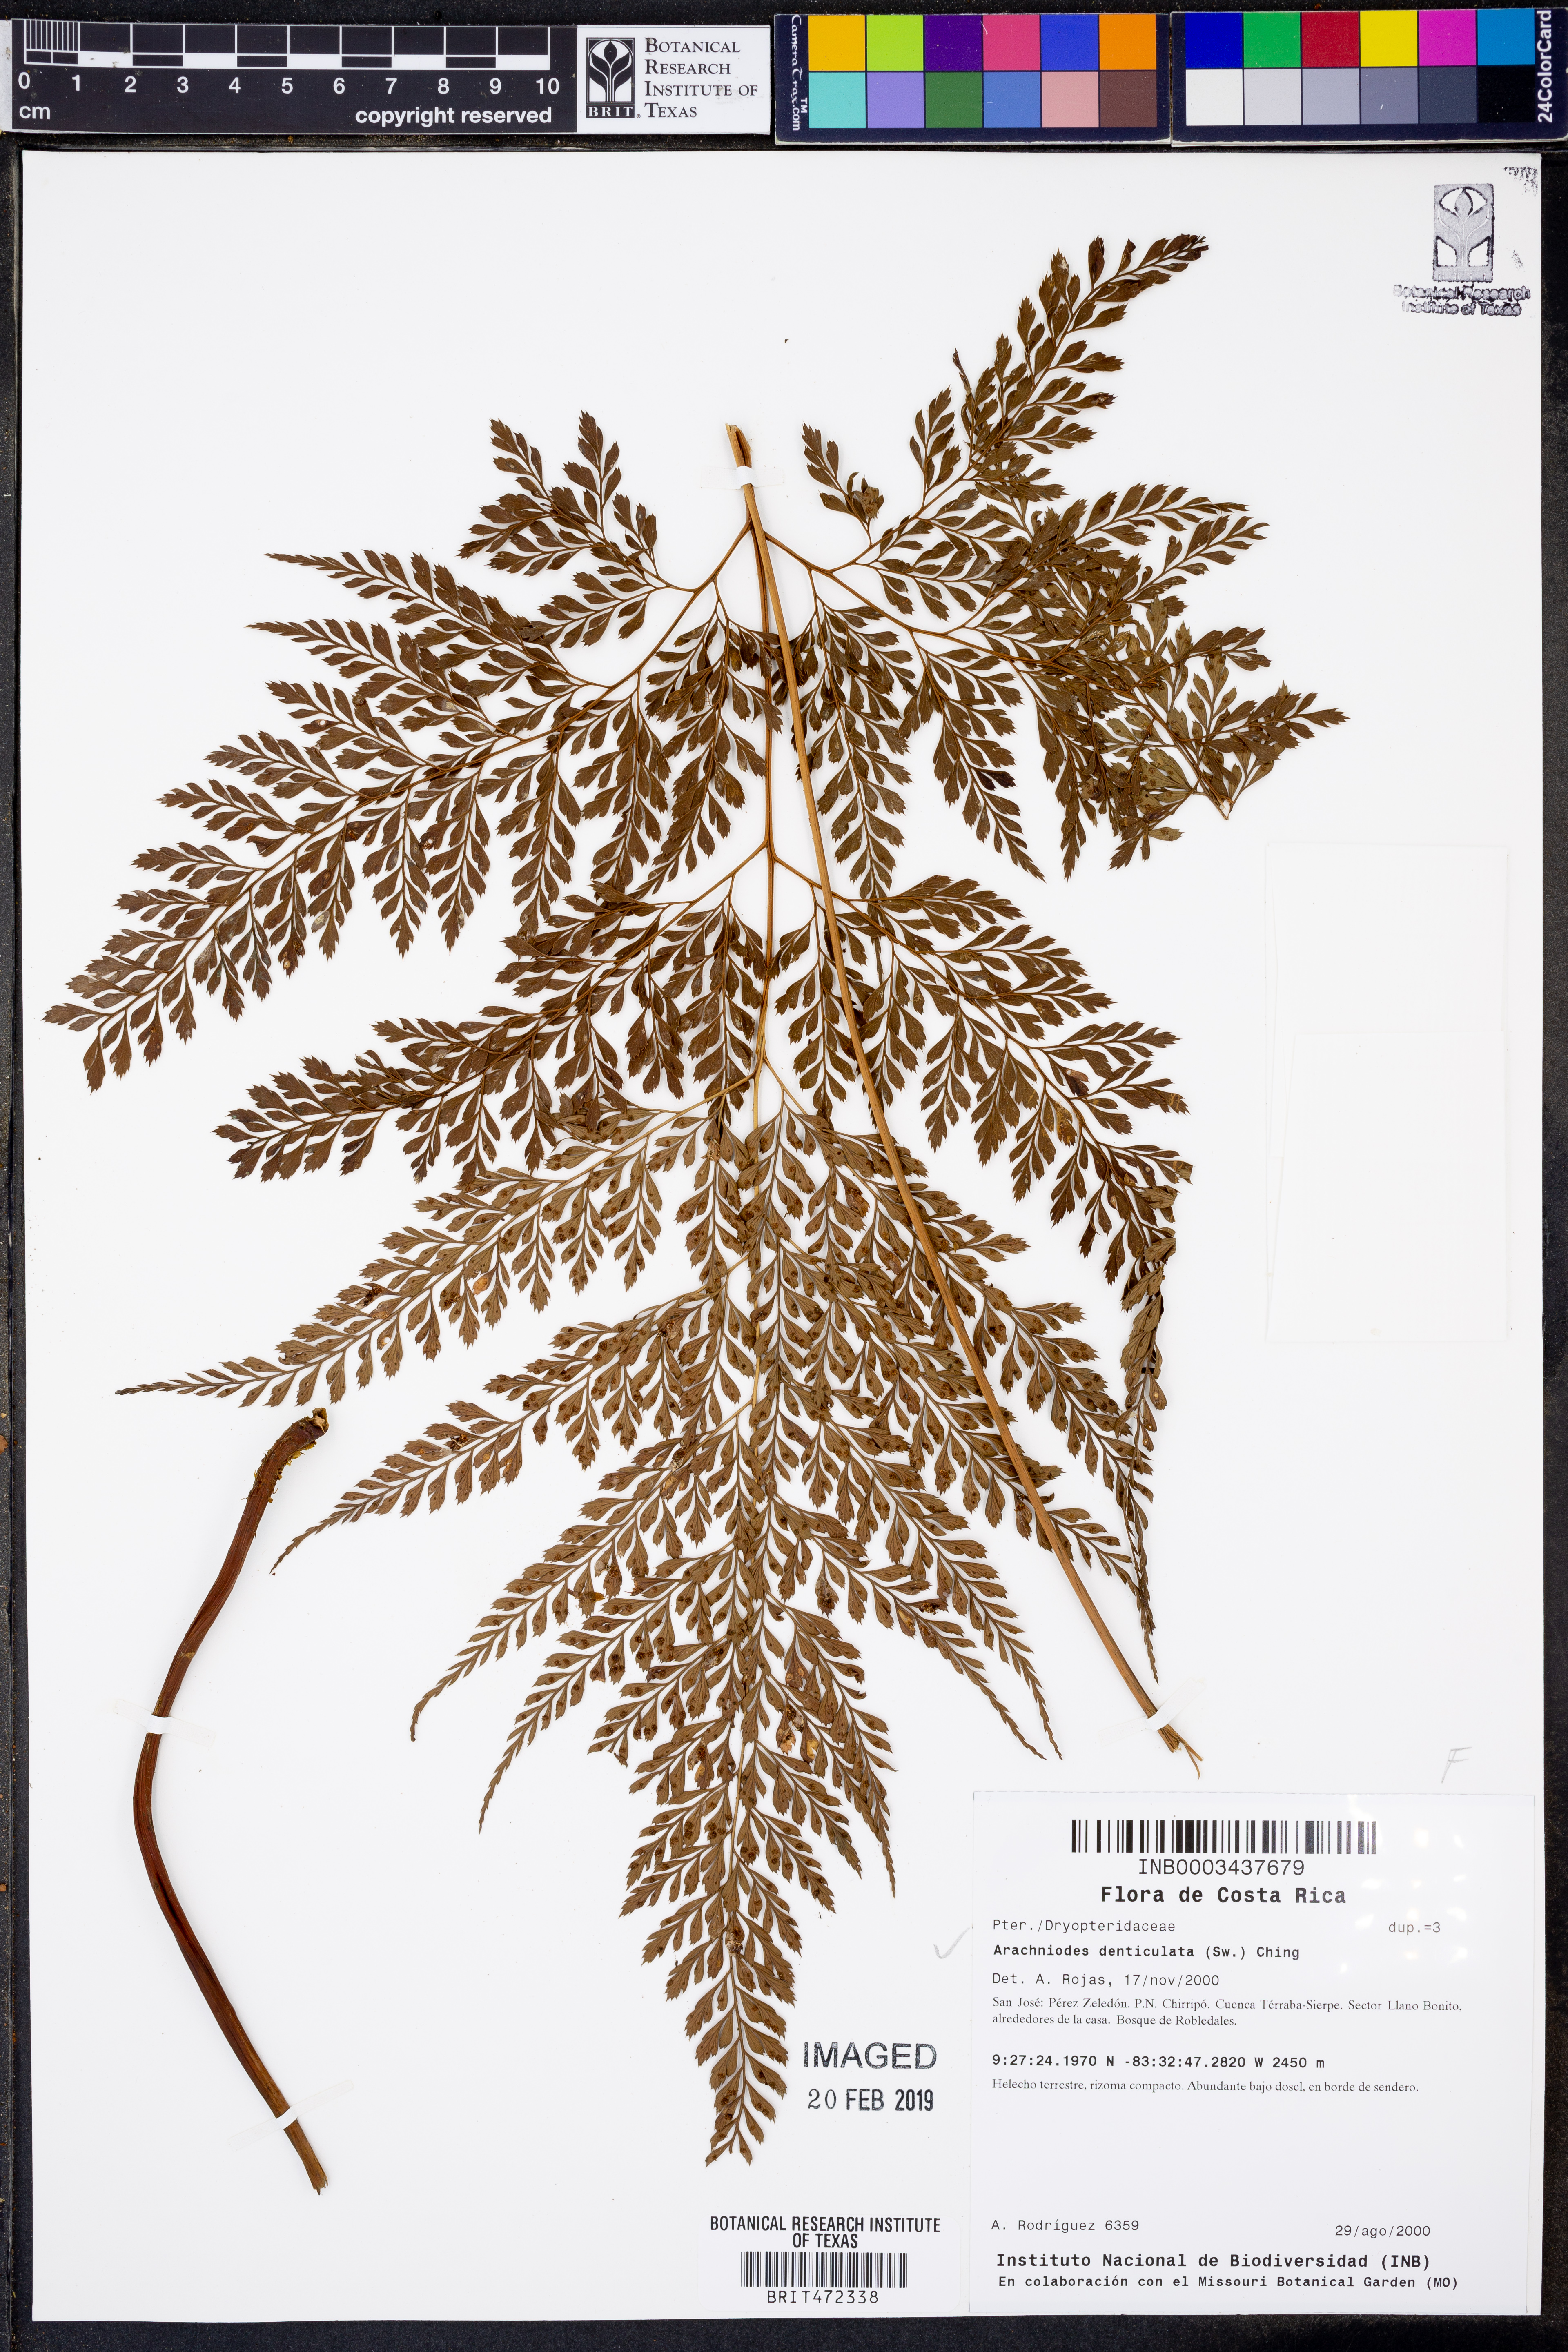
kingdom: Plantae
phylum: Tracheophyta
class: Polypodiopsida
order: Polypodiales
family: Dryopteridaceae
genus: Arachniodes
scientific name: Arachniodes denticulata
